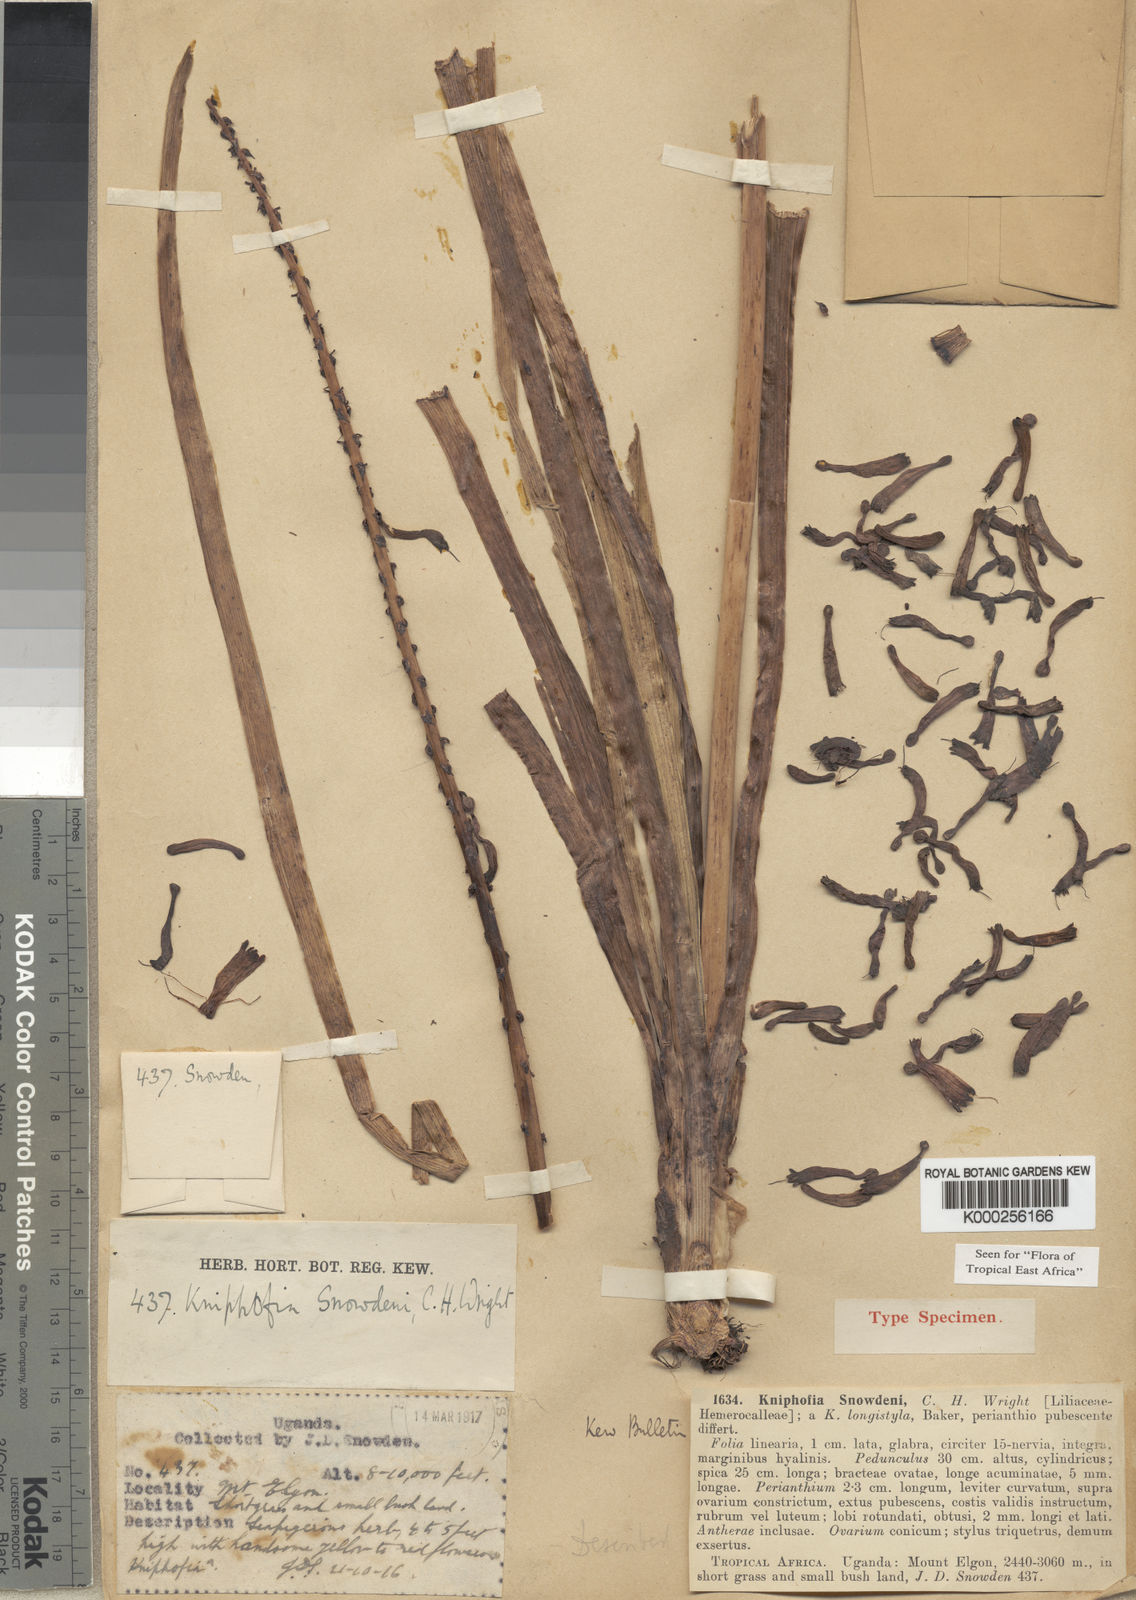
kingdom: Plantae
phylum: Tracheophyta
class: Liliopsida
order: Asparagales
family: Asphodelaceae
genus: Kniphofia
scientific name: Kniphofia thomsonii
